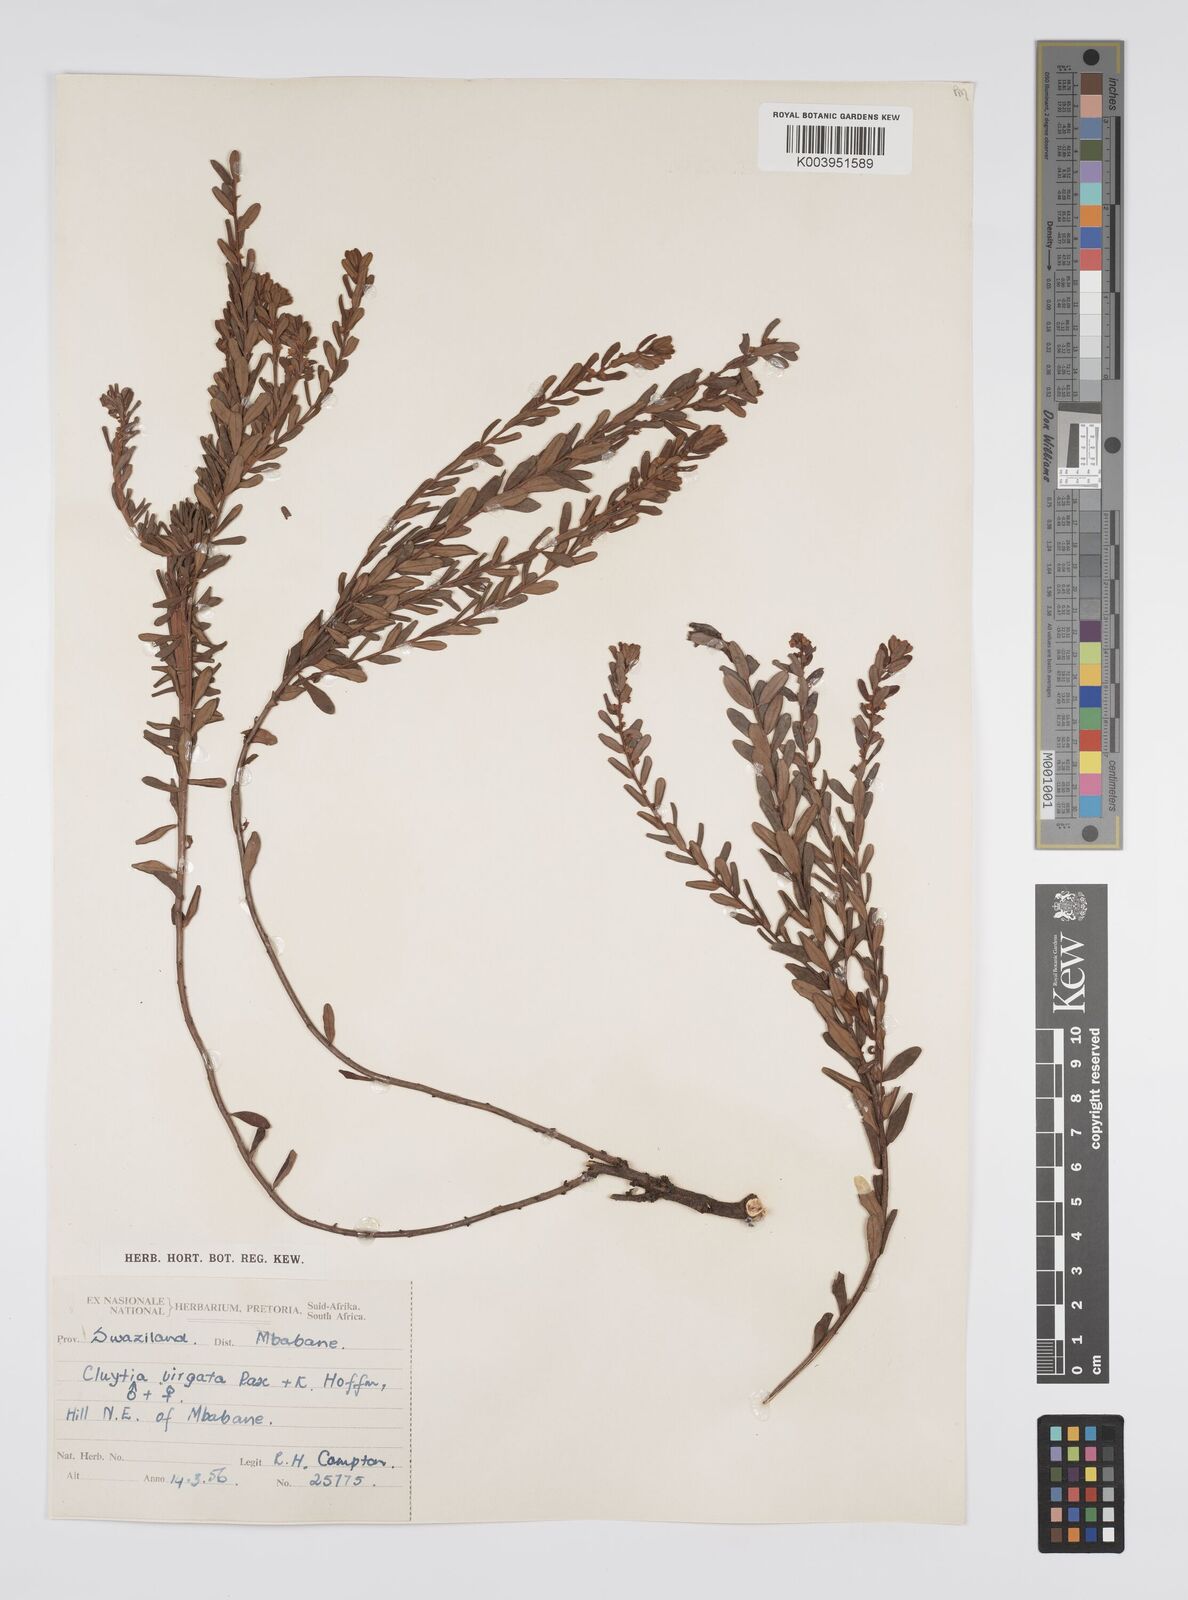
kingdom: Plantae
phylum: Tracheophyta
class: Magnoliopsida
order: Malpighiales
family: Peraceae
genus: Clutia
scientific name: Clutia virgata
